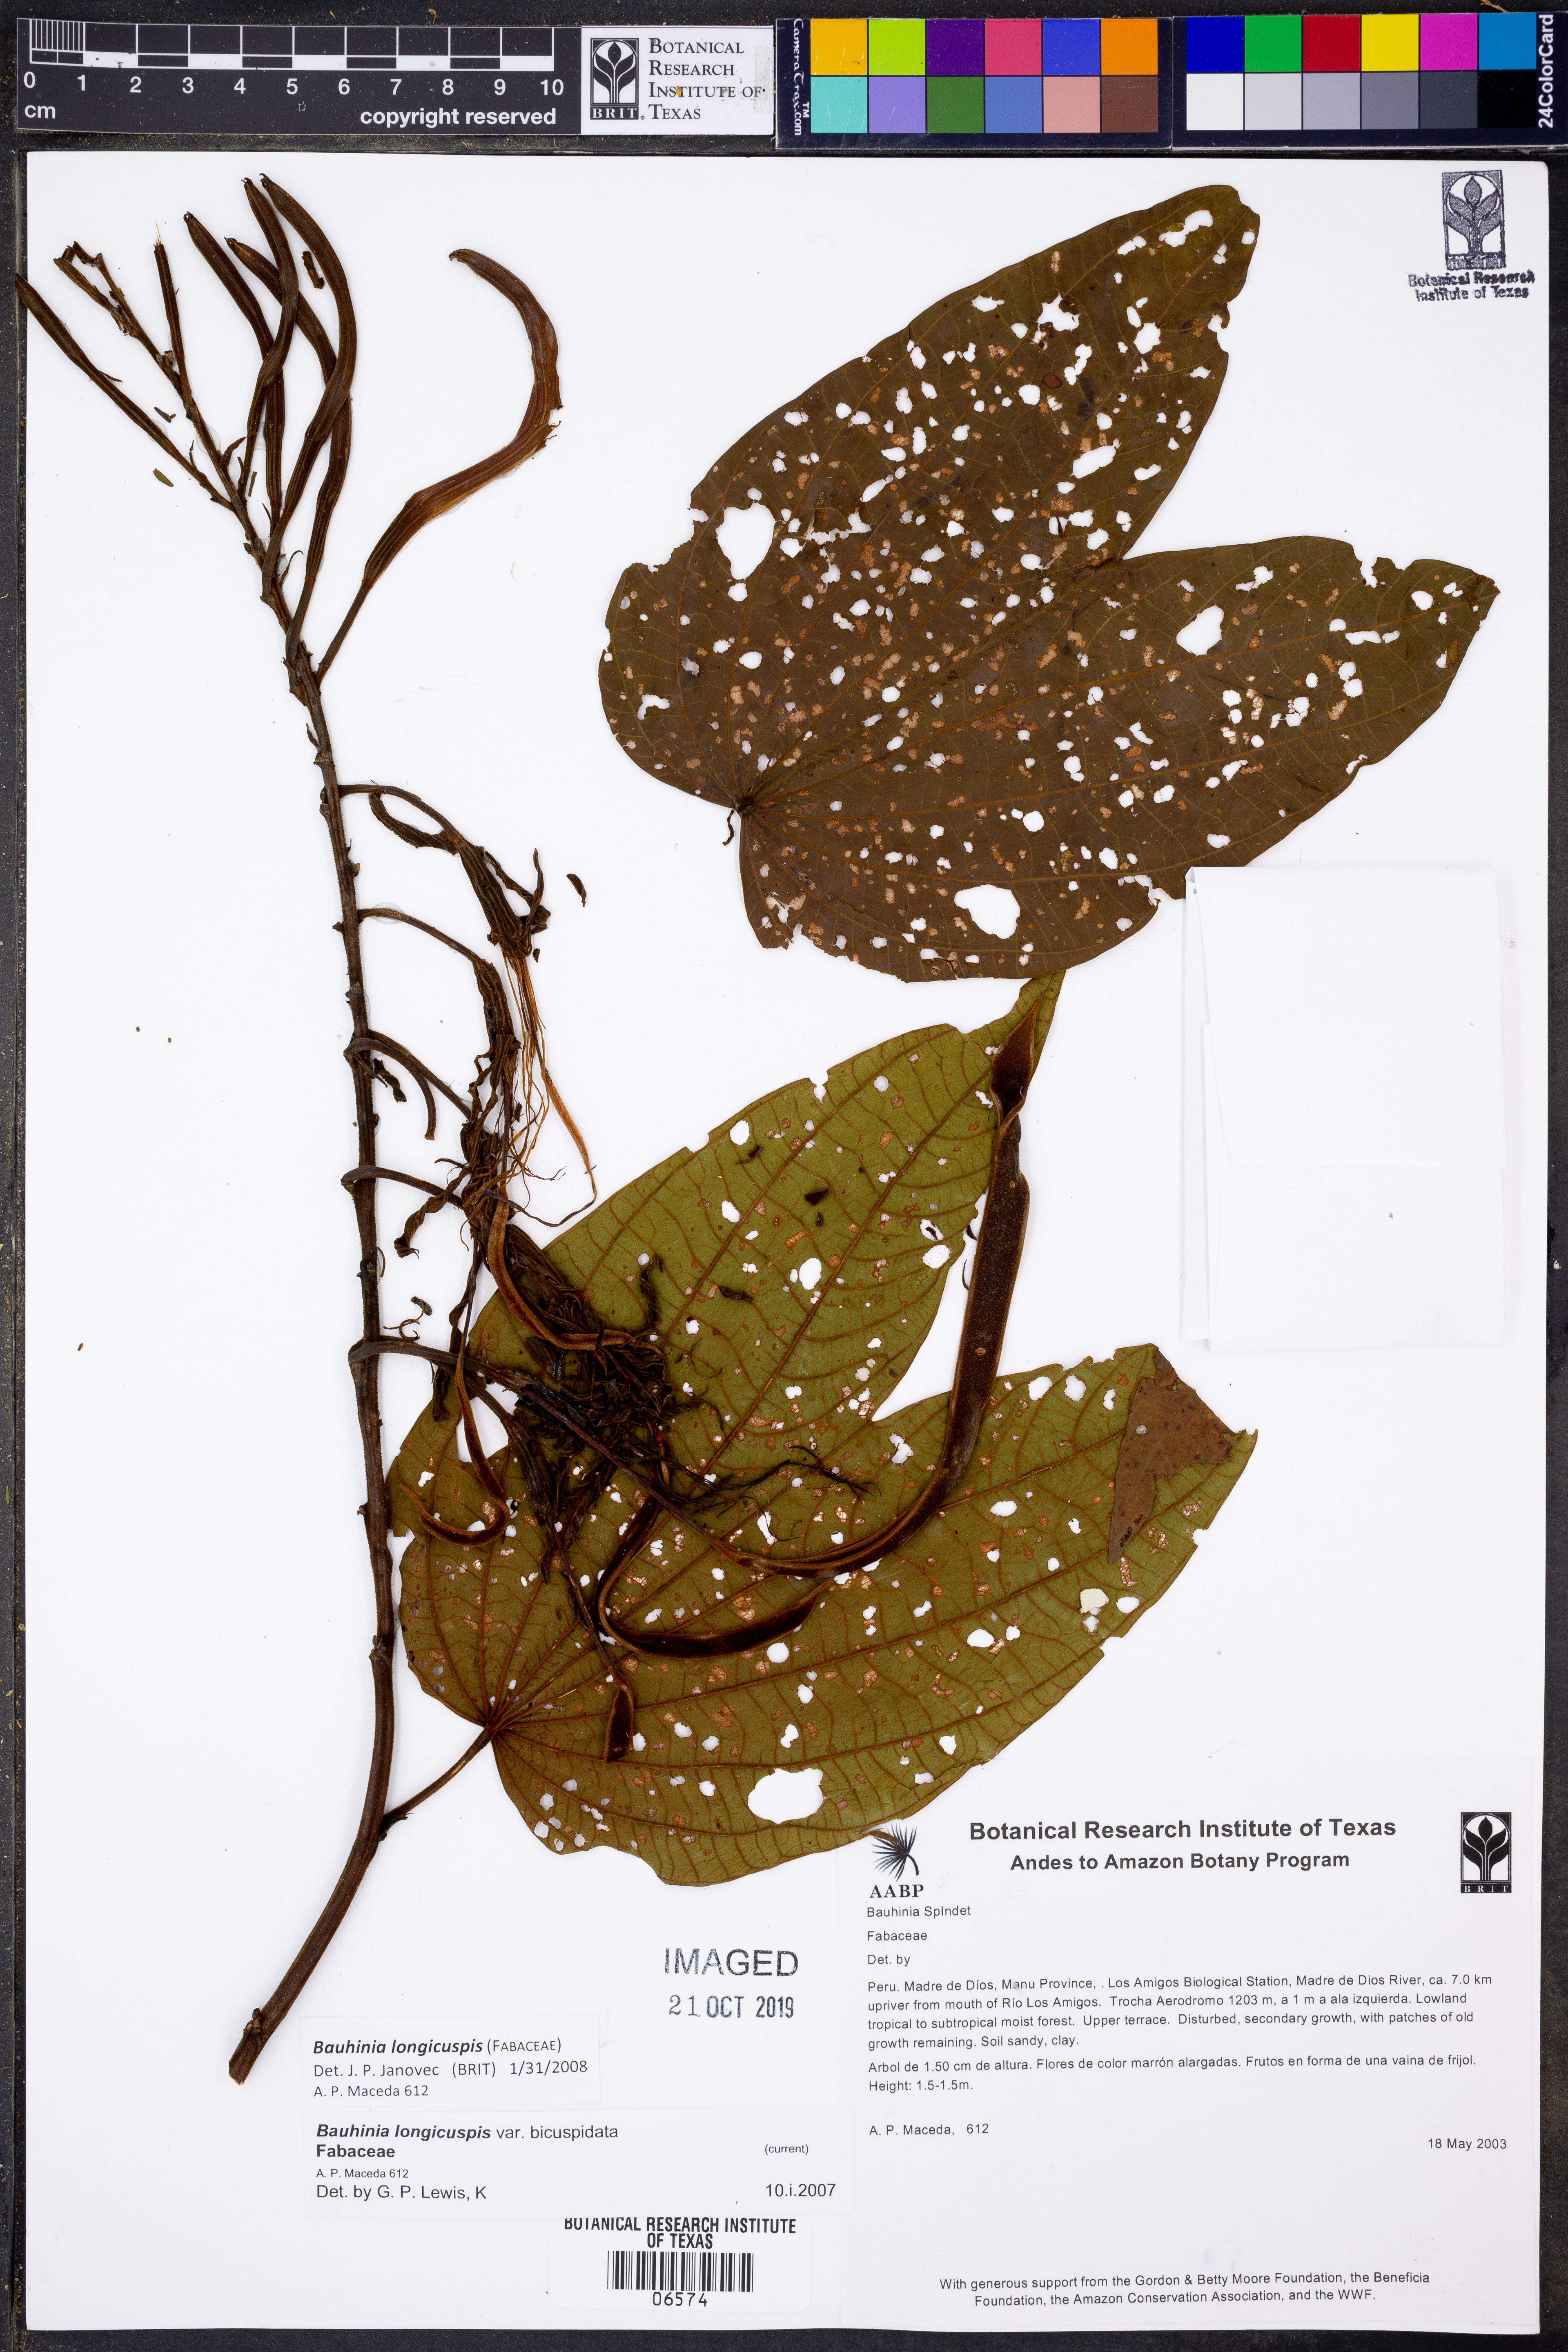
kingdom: Plantae
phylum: Tracheophyta
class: Magnoliopsida
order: Fabales
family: Fabaceae
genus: Bauhinia
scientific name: Bauhinia
